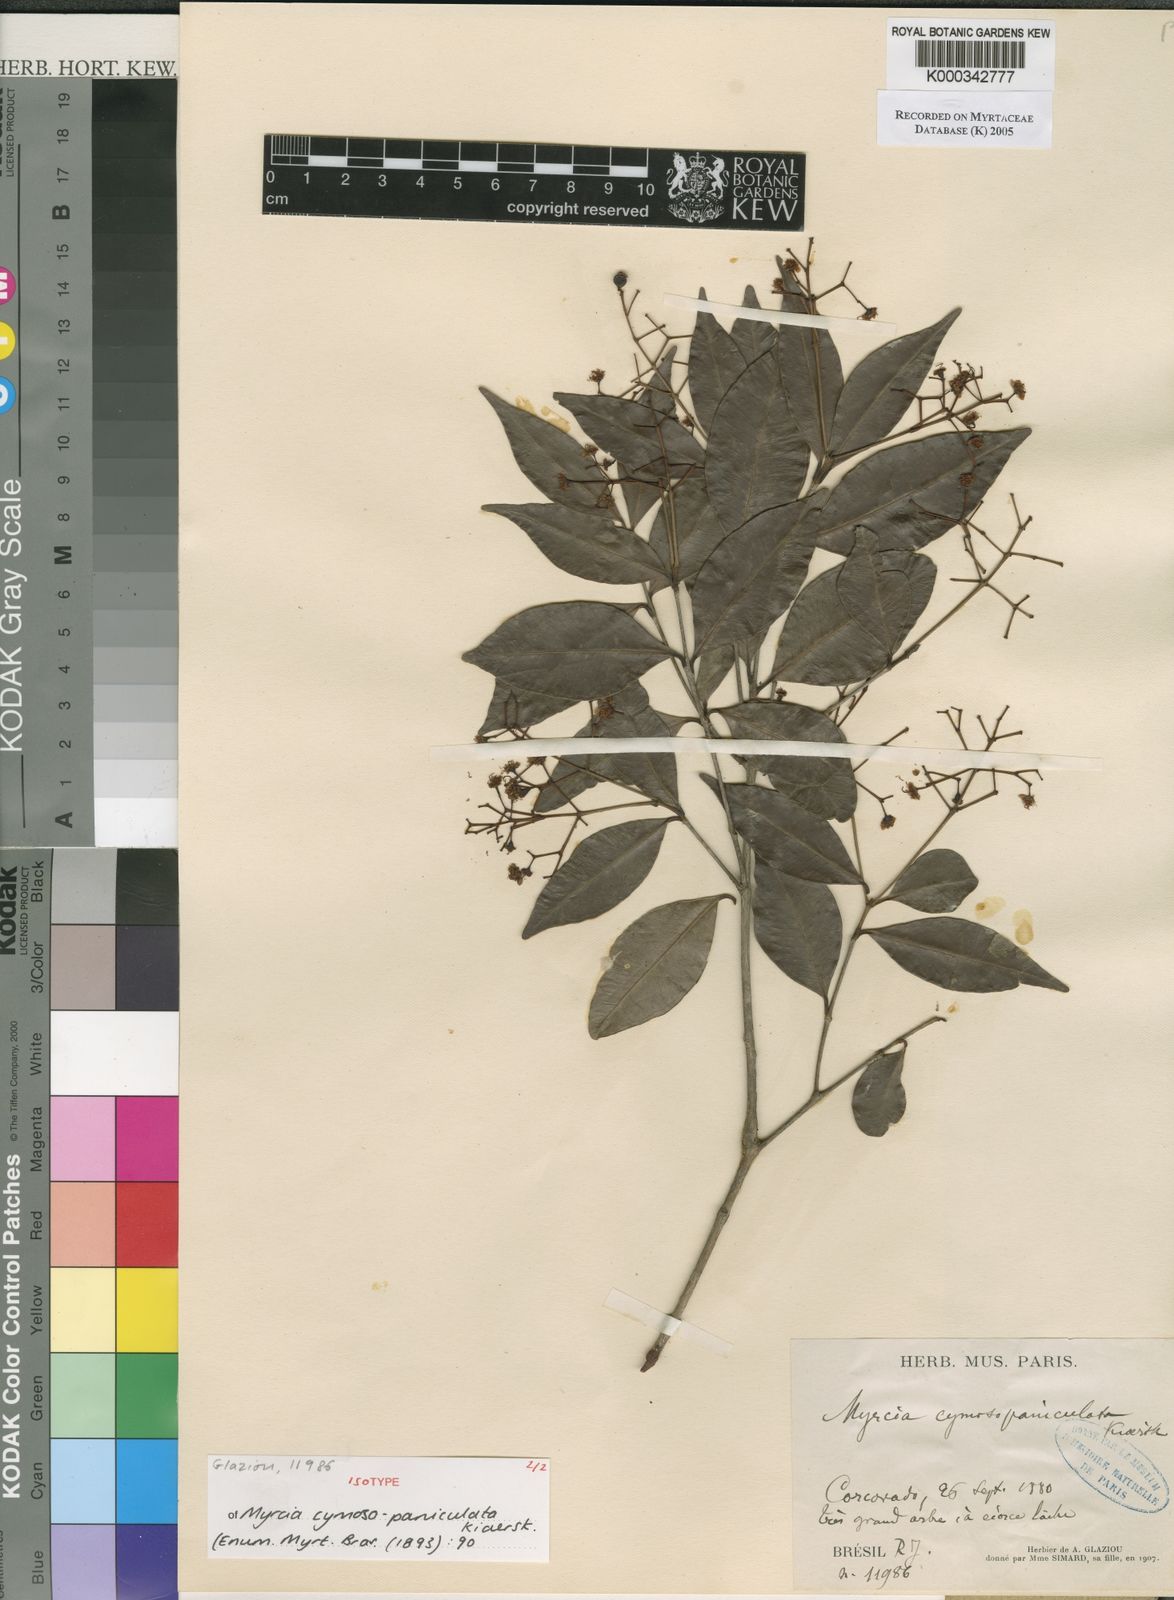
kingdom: Plantae
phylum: Tracheophyta
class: Magnoliopsida
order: Myrtales
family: Myrtaceae
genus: Myrcia
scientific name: Myrcia guianensis
